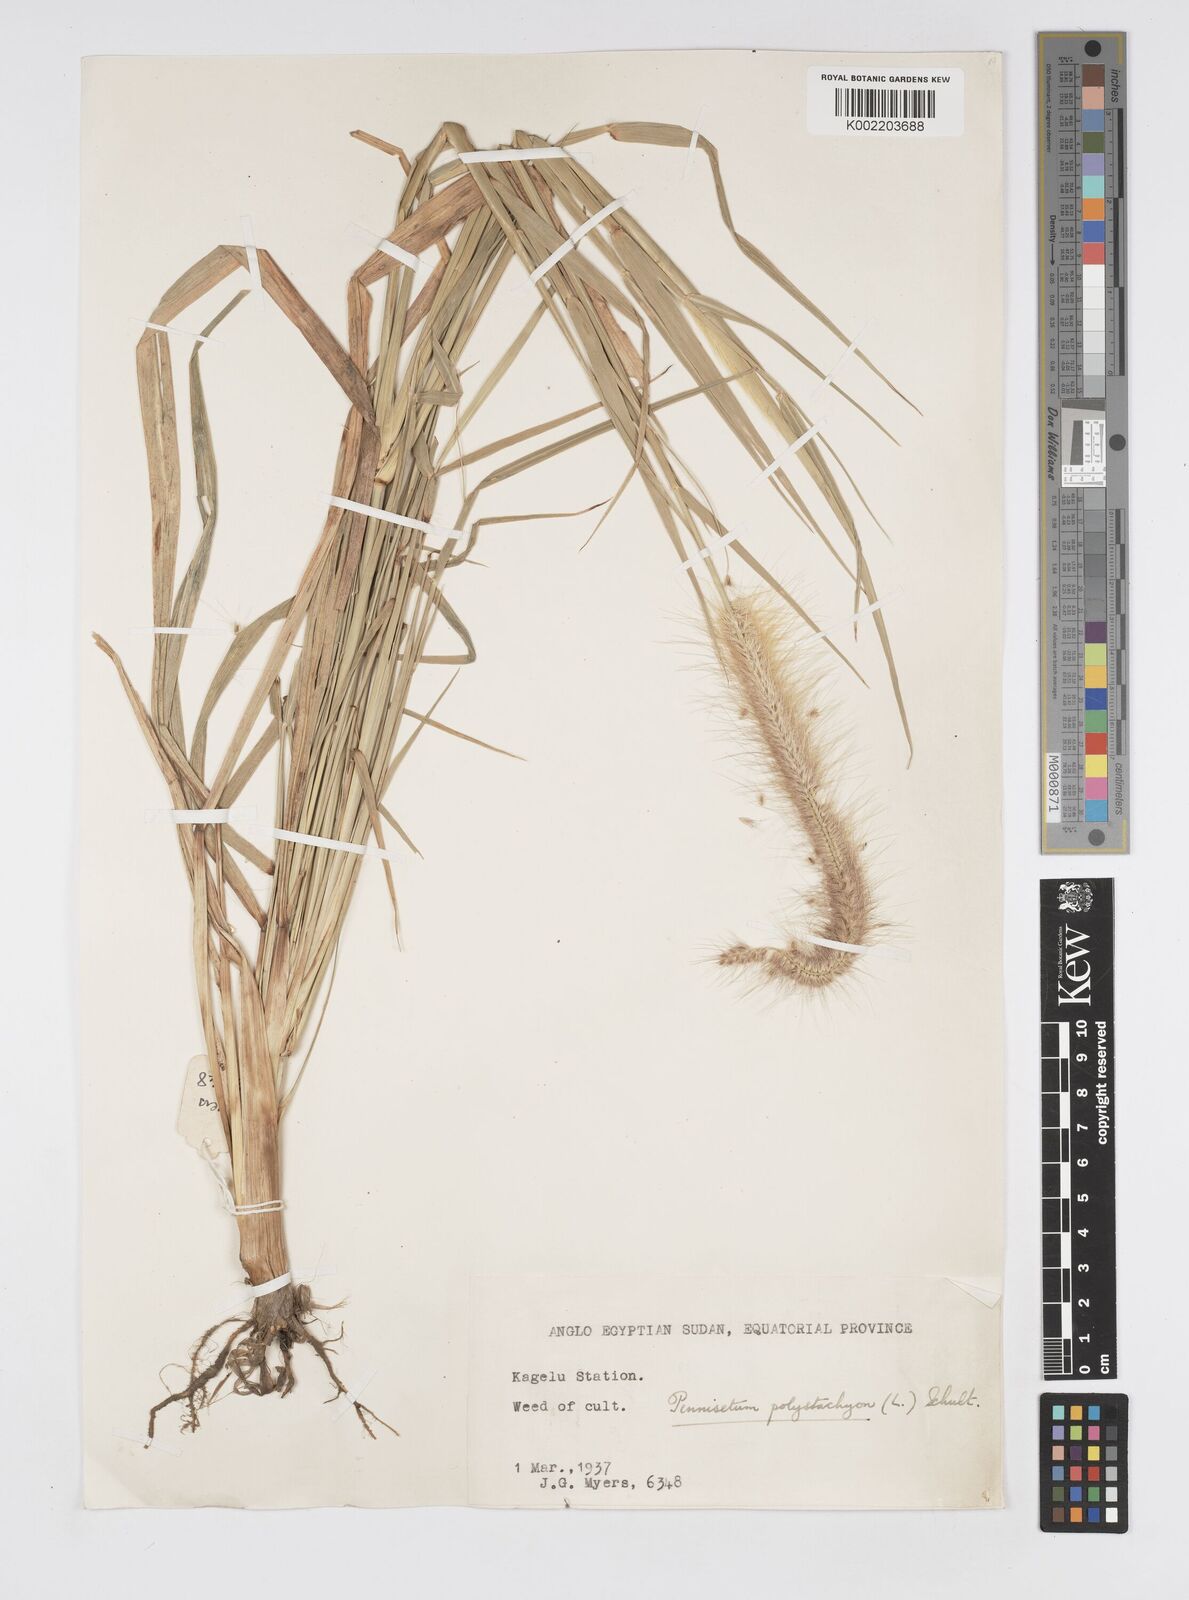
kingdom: Plantae
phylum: Tracheophyta
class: Liliopsida
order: Poales
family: Poaceae
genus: Setaria
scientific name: Setaria parviflora
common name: Knotroot bristle-grass
